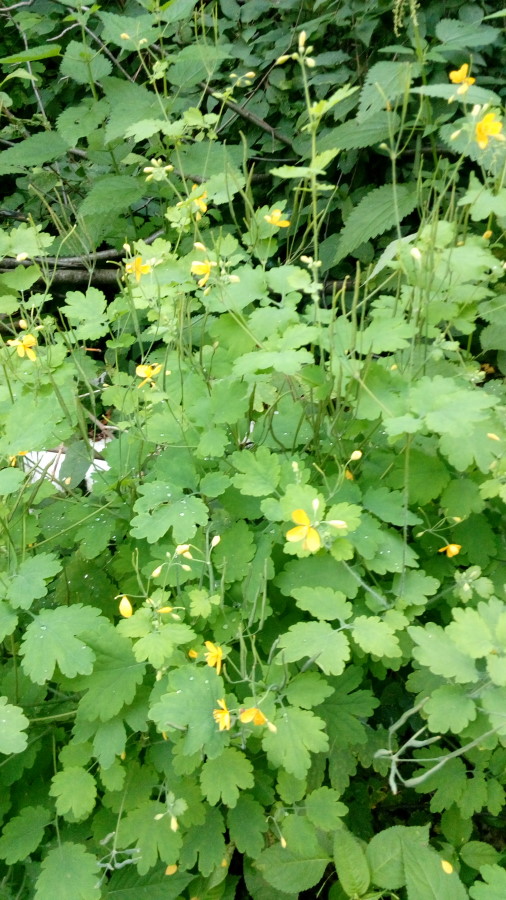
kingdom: Plantae
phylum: Tracheophyta
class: Magnoliopsida
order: Ranunculales
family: Papaveraceae
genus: Chelidonium
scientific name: Chelidonium majus
